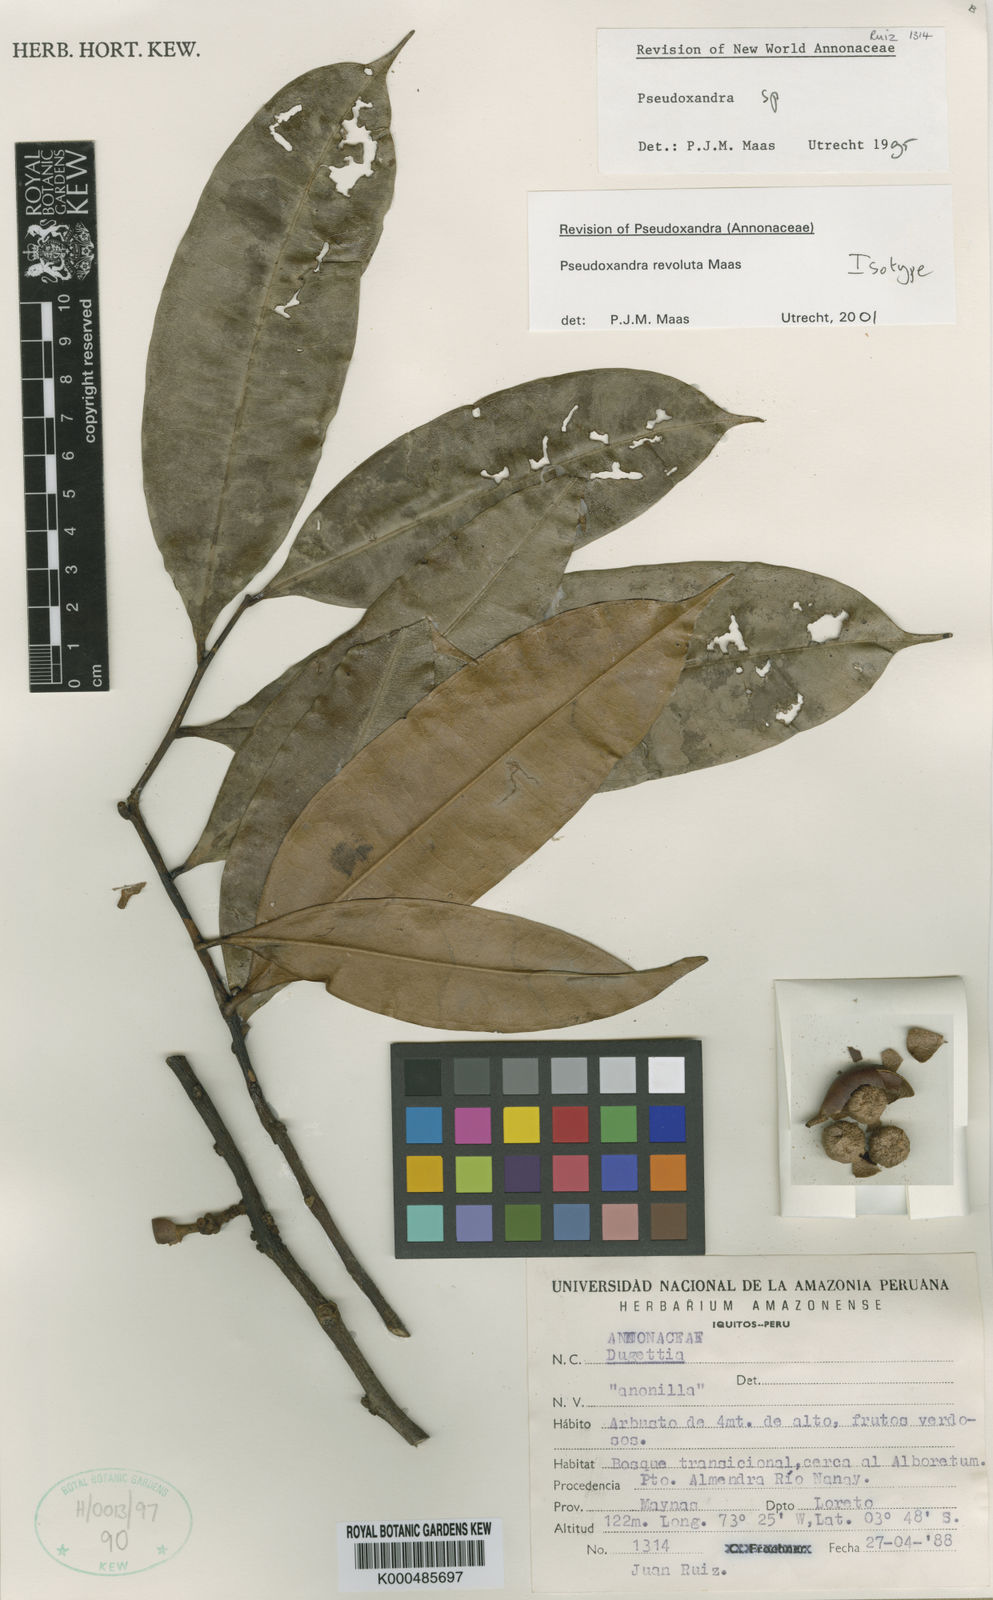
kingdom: Plantae
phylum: Tracheophyta
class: Magnoliopsida
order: Magnoliales
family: Annonaceae
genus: Pseudoxandra
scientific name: Pseudoxandra revoluta
